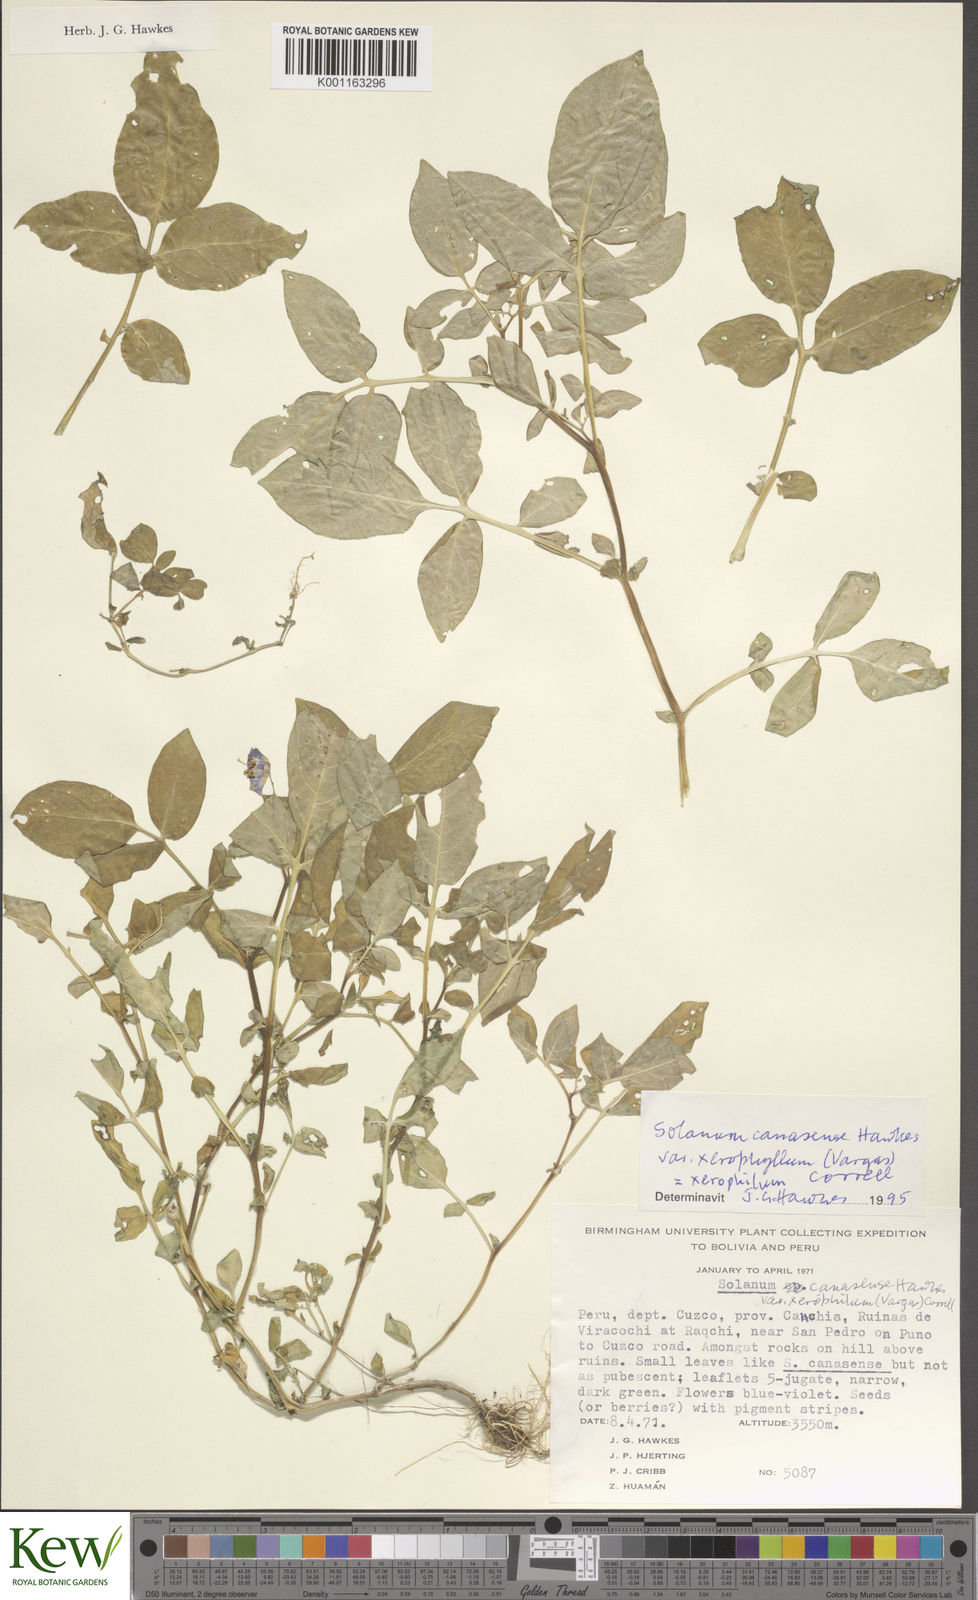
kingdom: Plantae
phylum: Tracheophyta
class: Magnoliopsida
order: Solanales
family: Solanaceae
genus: Solanum
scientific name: Solanum candolleanum
